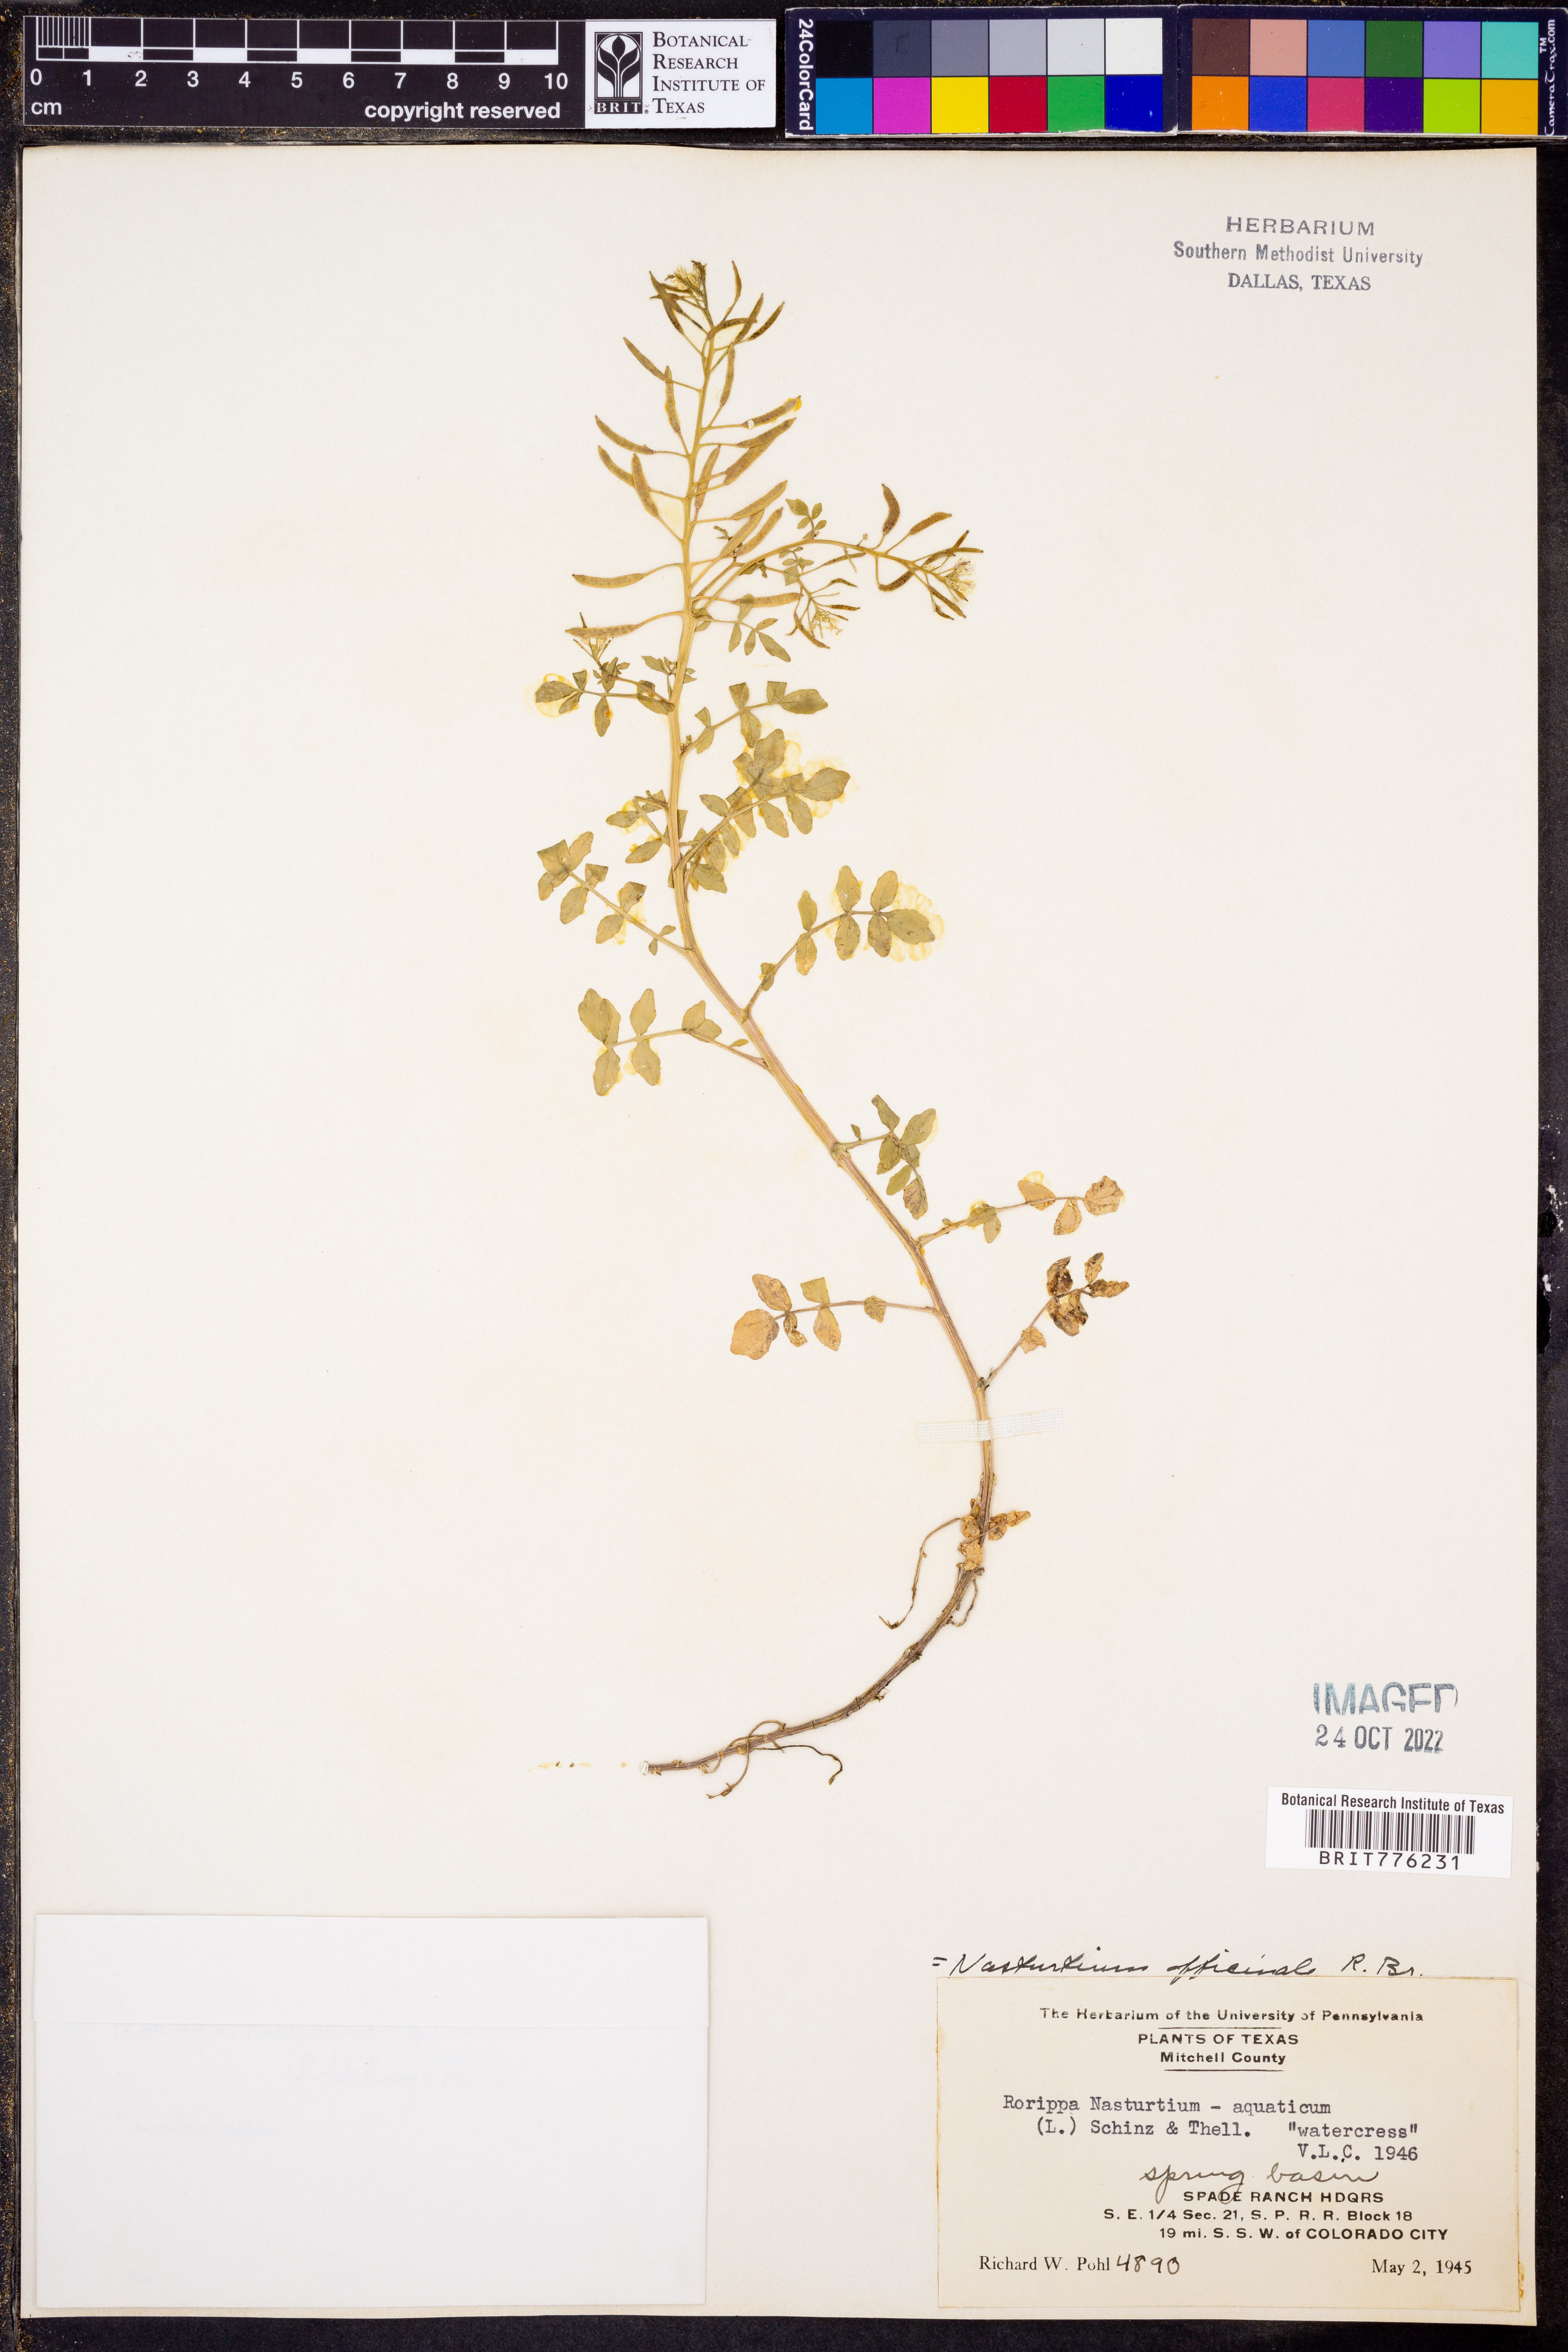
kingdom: Plantae
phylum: Tracheophyta
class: Magnoliopsida
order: Brassicales
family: Brassicaceae
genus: Nasturtium
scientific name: Nasturtium officinale
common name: Watercress
